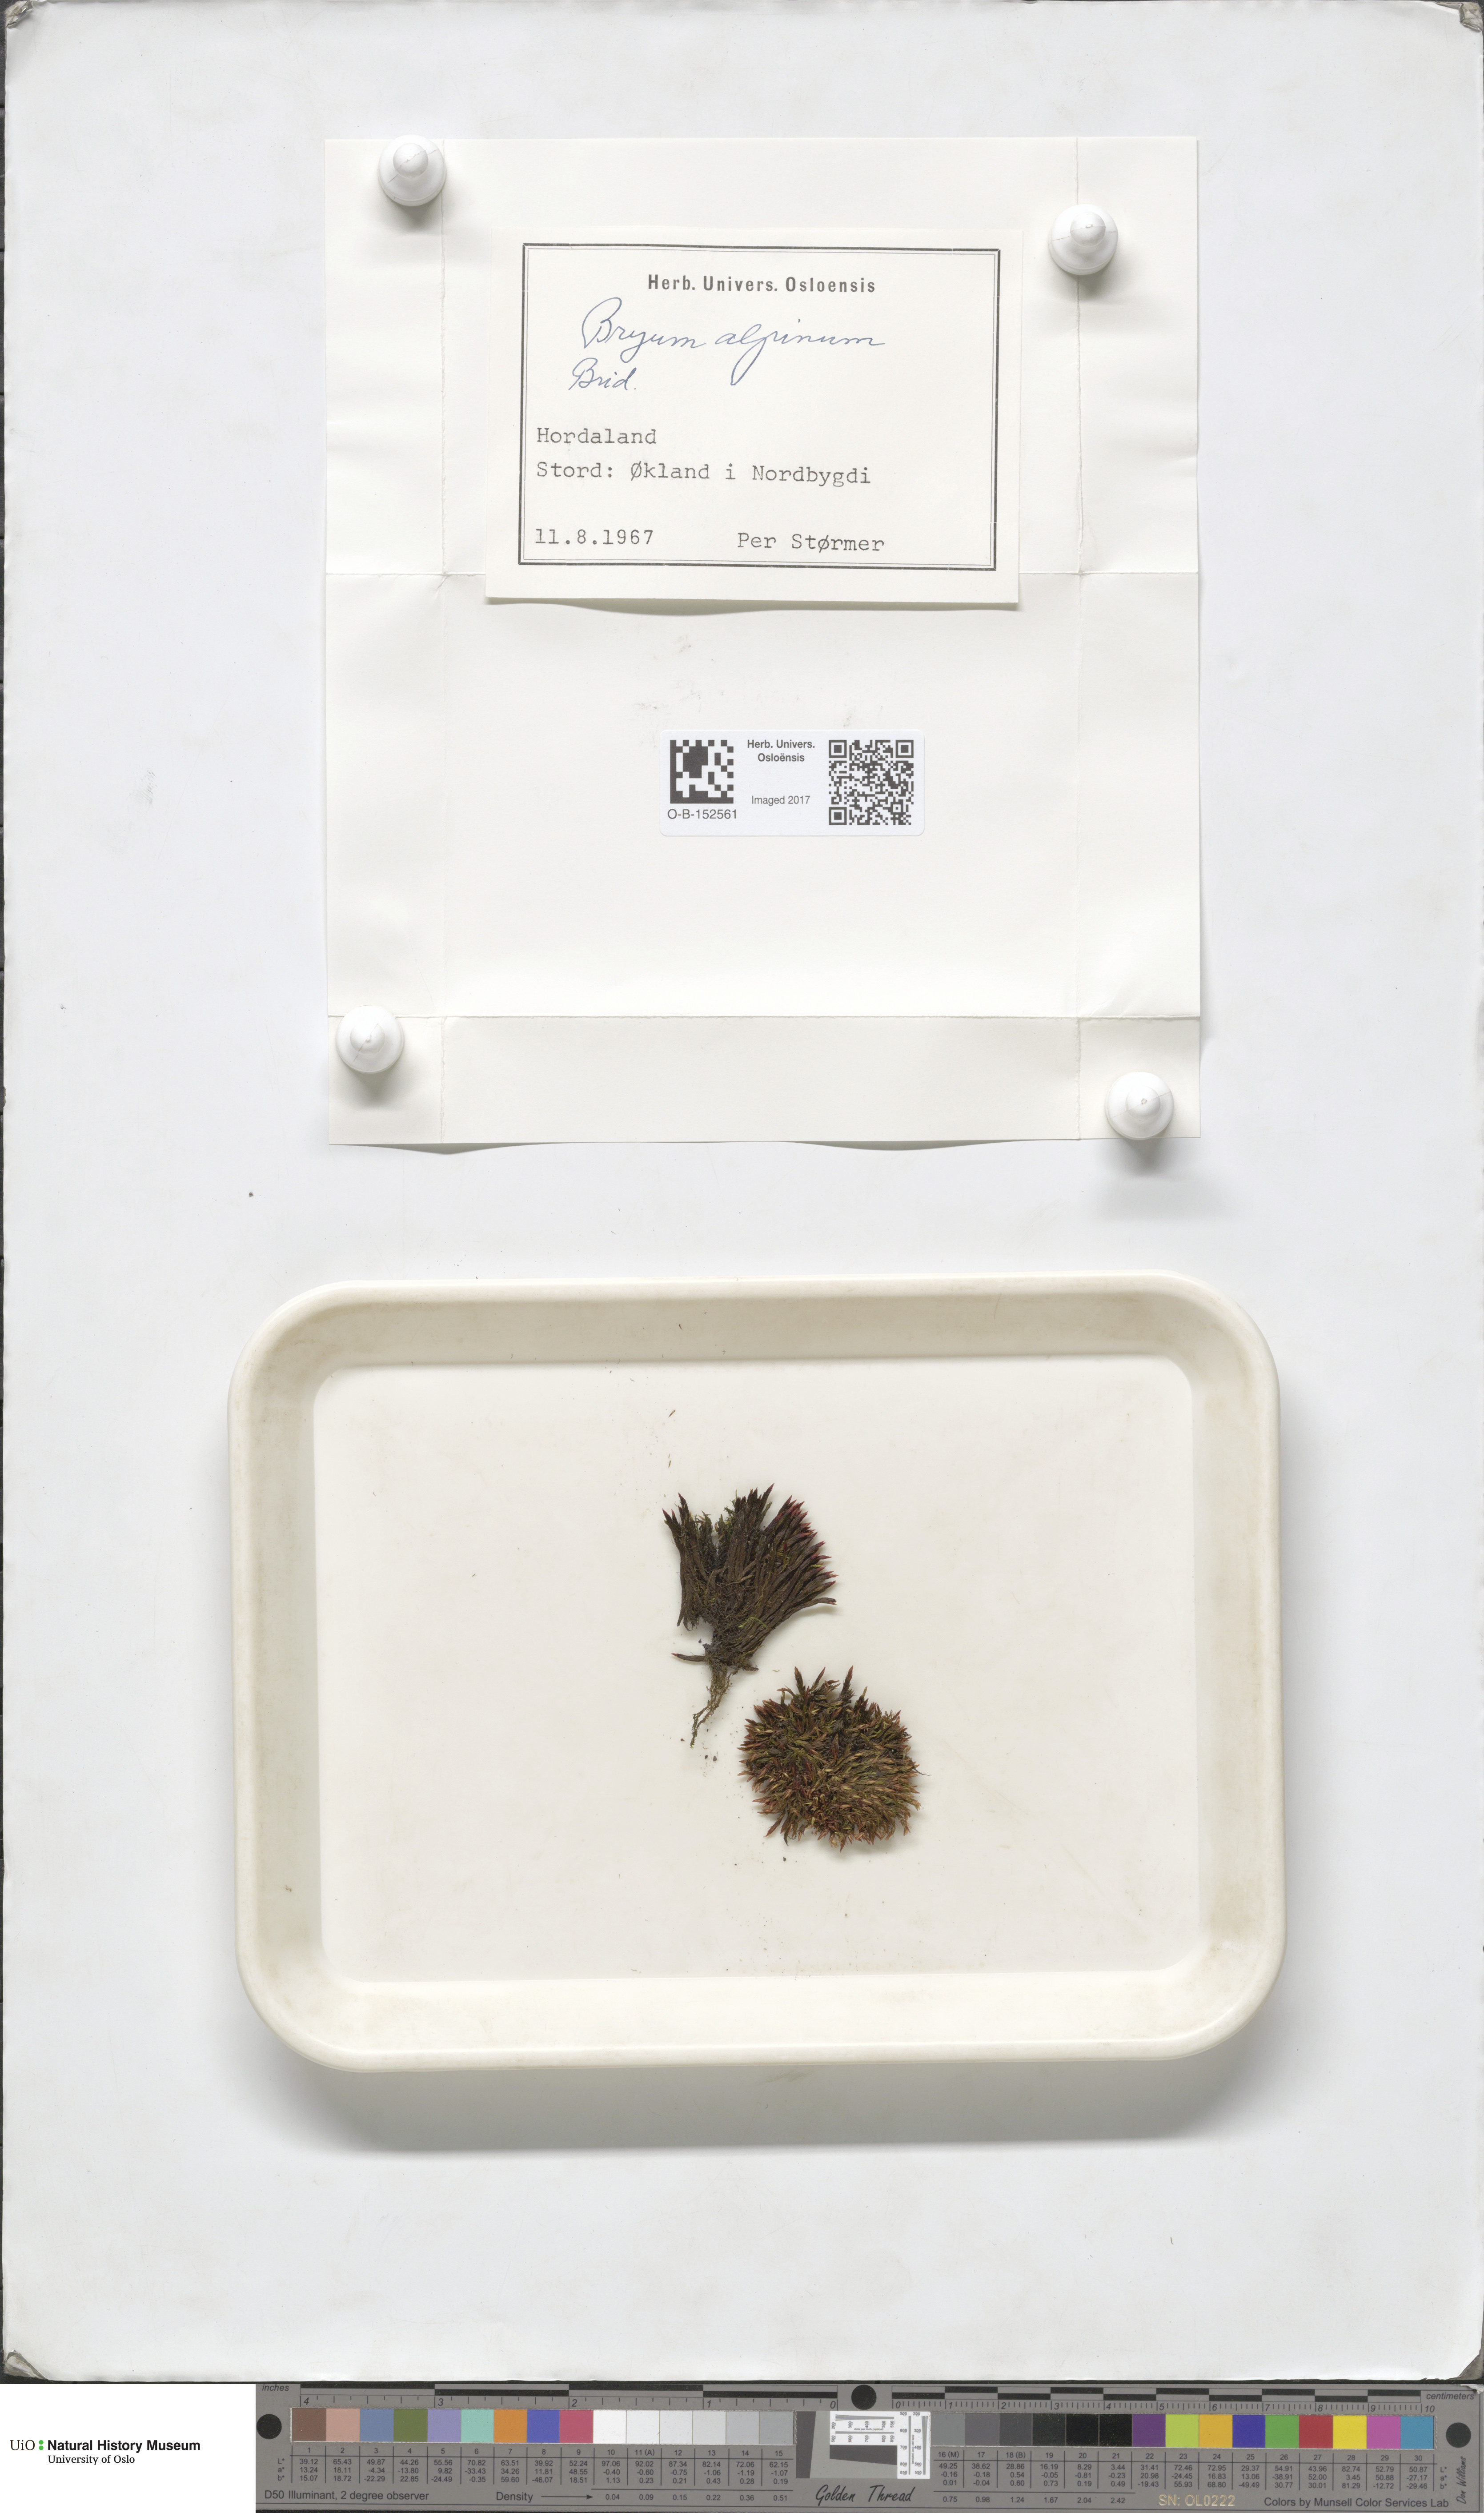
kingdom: Plantae
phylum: Bryophyta
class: Bryopsida
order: Bryales
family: Bryaceae
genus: Imbribryum
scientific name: Imbribryum alpinum
